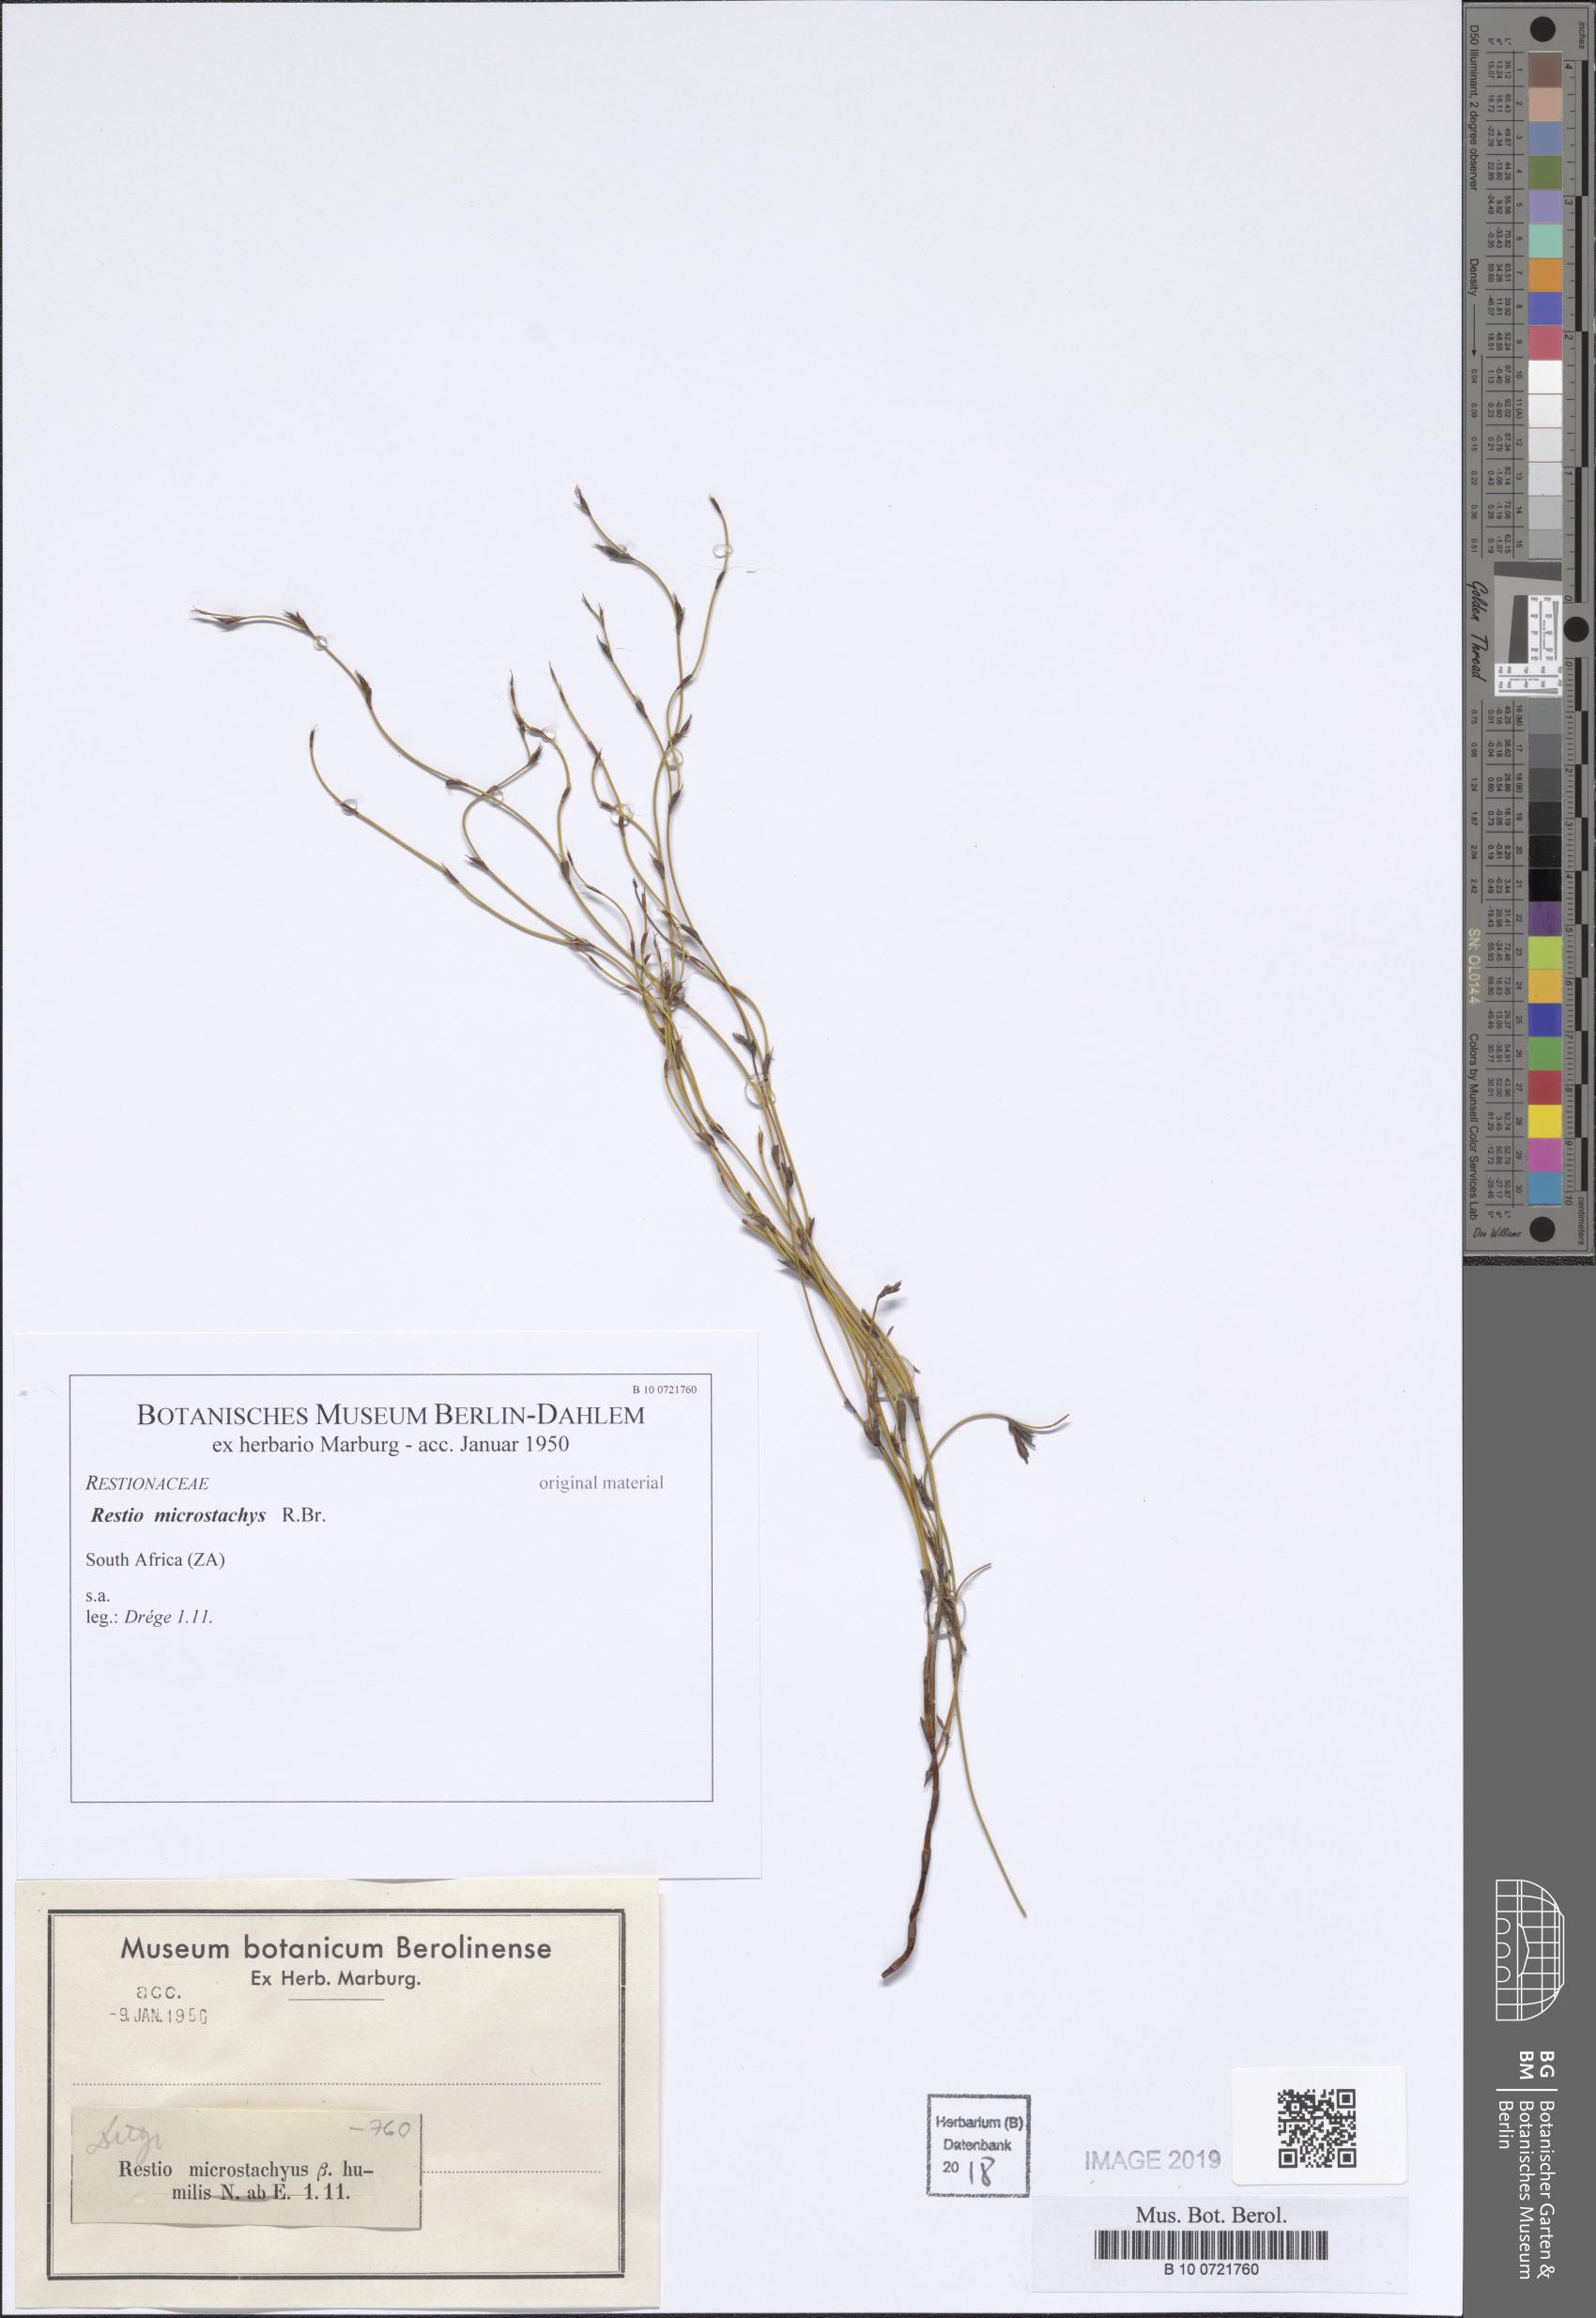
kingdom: Plantae
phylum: Tracheophyta
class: Liliopsida
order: Poales
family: Restionaceae
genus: Leptocarpus
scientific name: Leptocarpus scariosus
